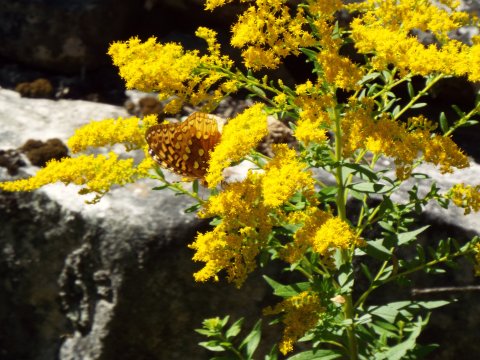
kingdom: Animalia
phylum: Arthropoda
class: Insecta
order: Lepidoptera
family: Nymphalidae
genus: Speyeria
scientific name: Speyeria cybele
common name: Great Spangled Fritillary
